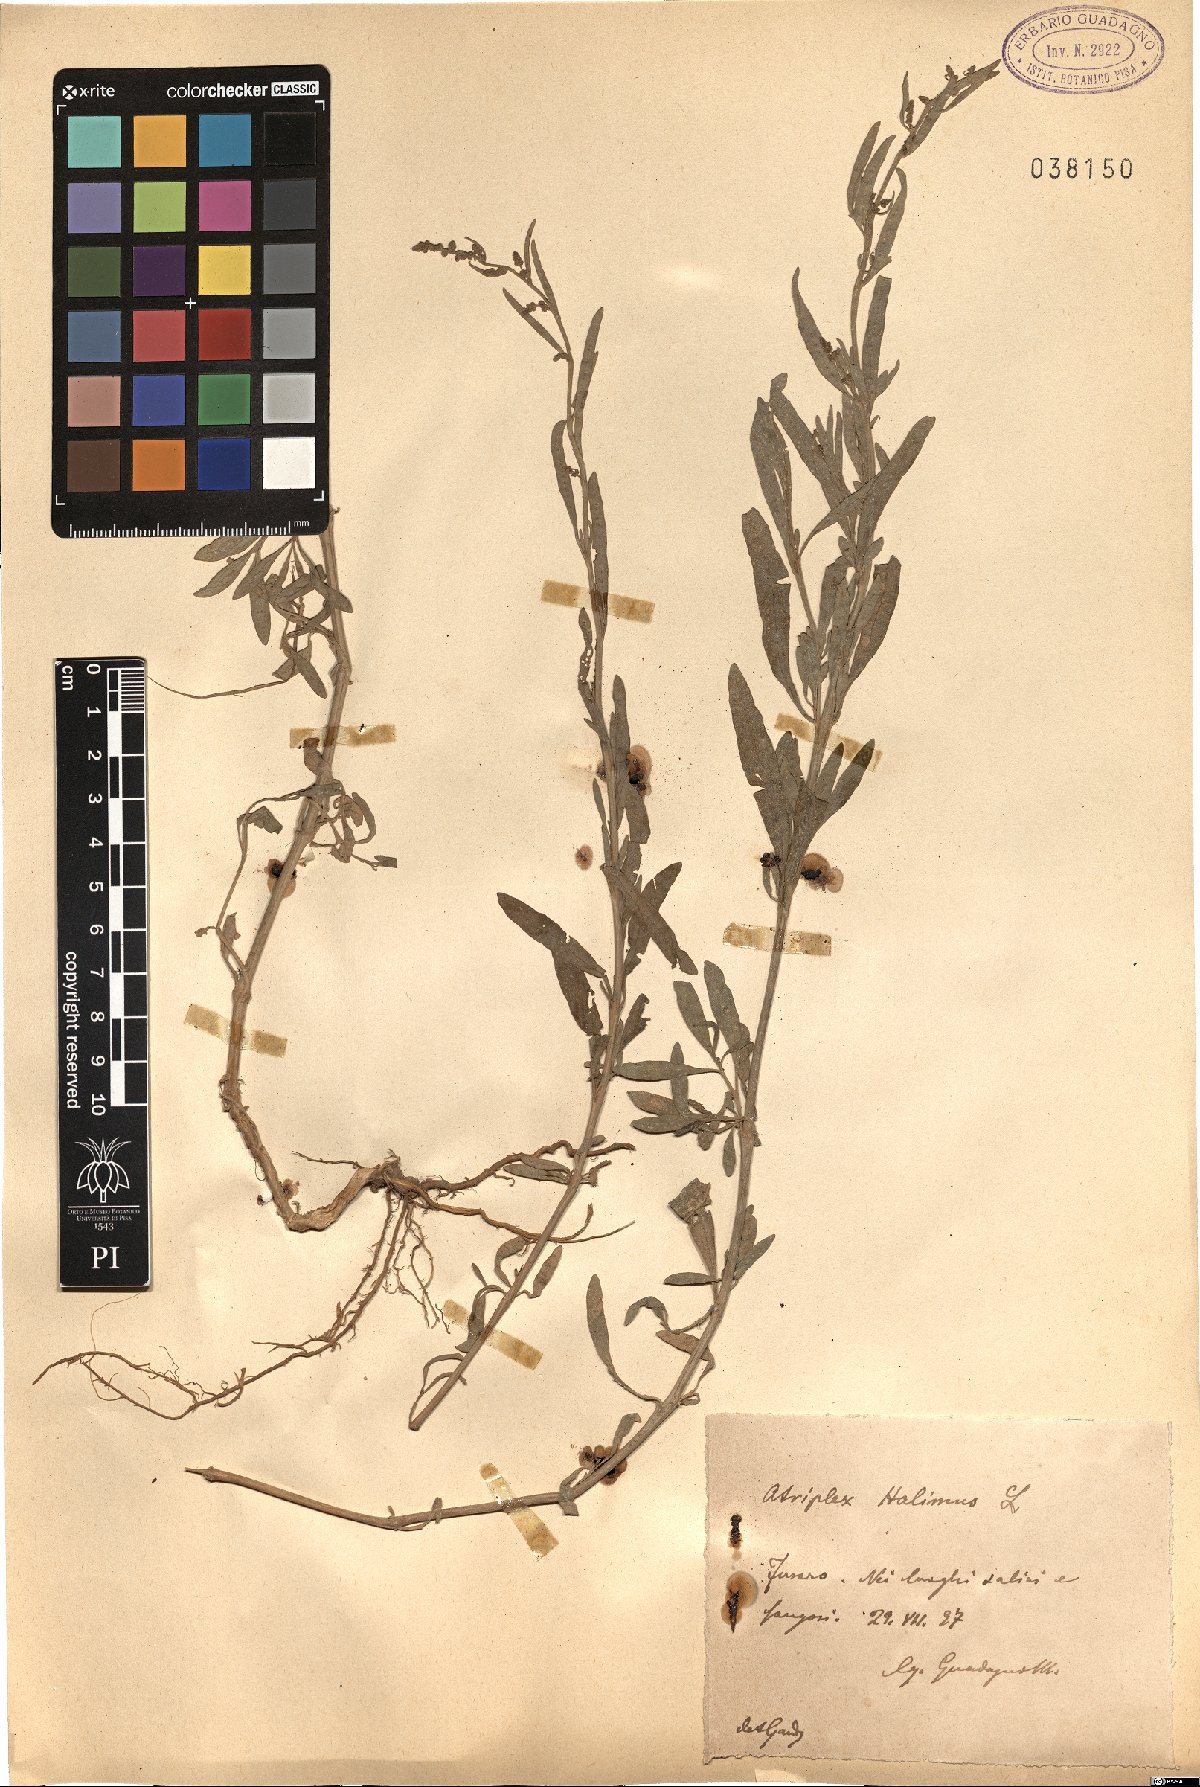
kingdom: Plantae
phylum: Tracheophyta
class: Magnoliopsida
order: Caryophyllales
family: Amaranthaceae
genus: Atriplex
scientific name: Atriplex halimus
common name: Shrubby orache
